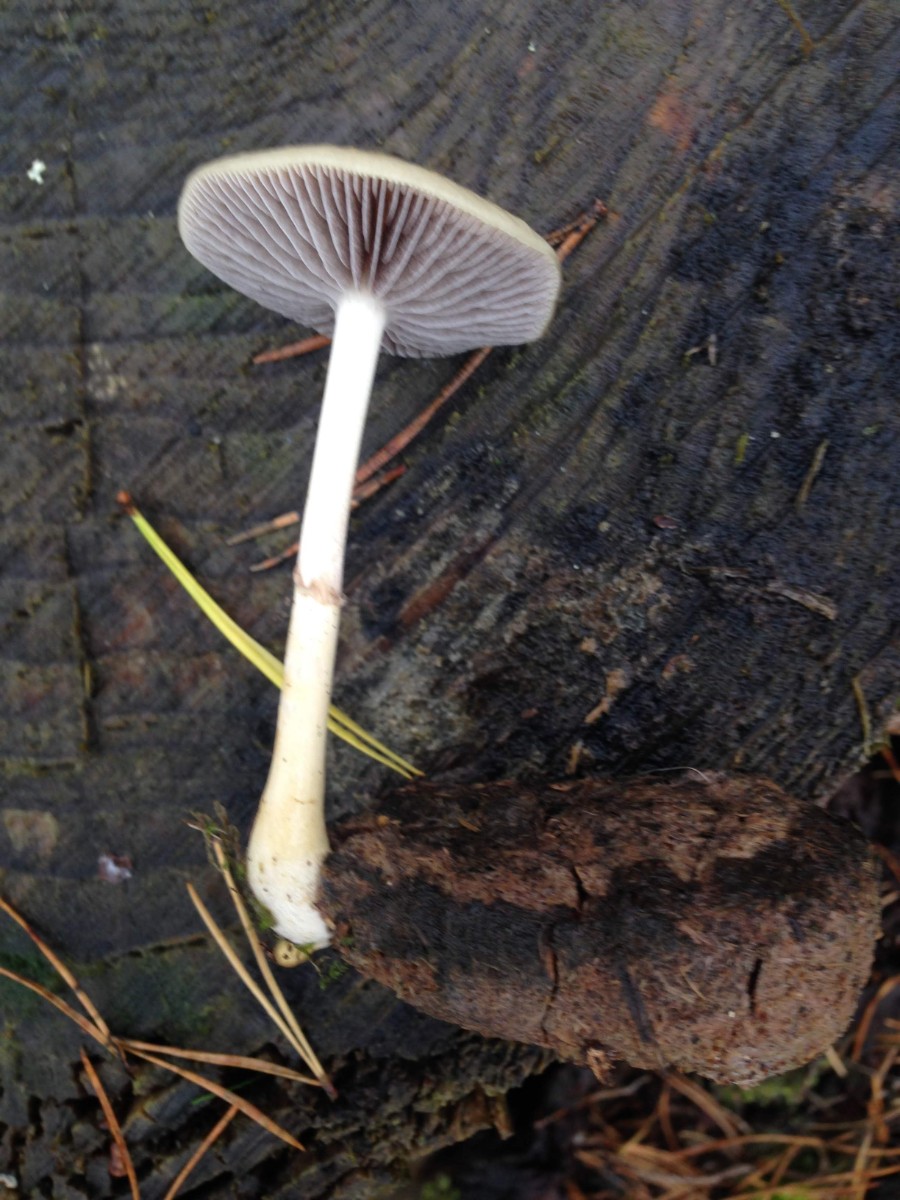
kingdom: Fungi
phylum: Basidiomycota
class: Agaricomycetes
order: Agaricales
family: Strophariaceae
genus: Protostropharia
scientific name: Protostropharia semiglobata
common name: halvkugleformet bredblad
